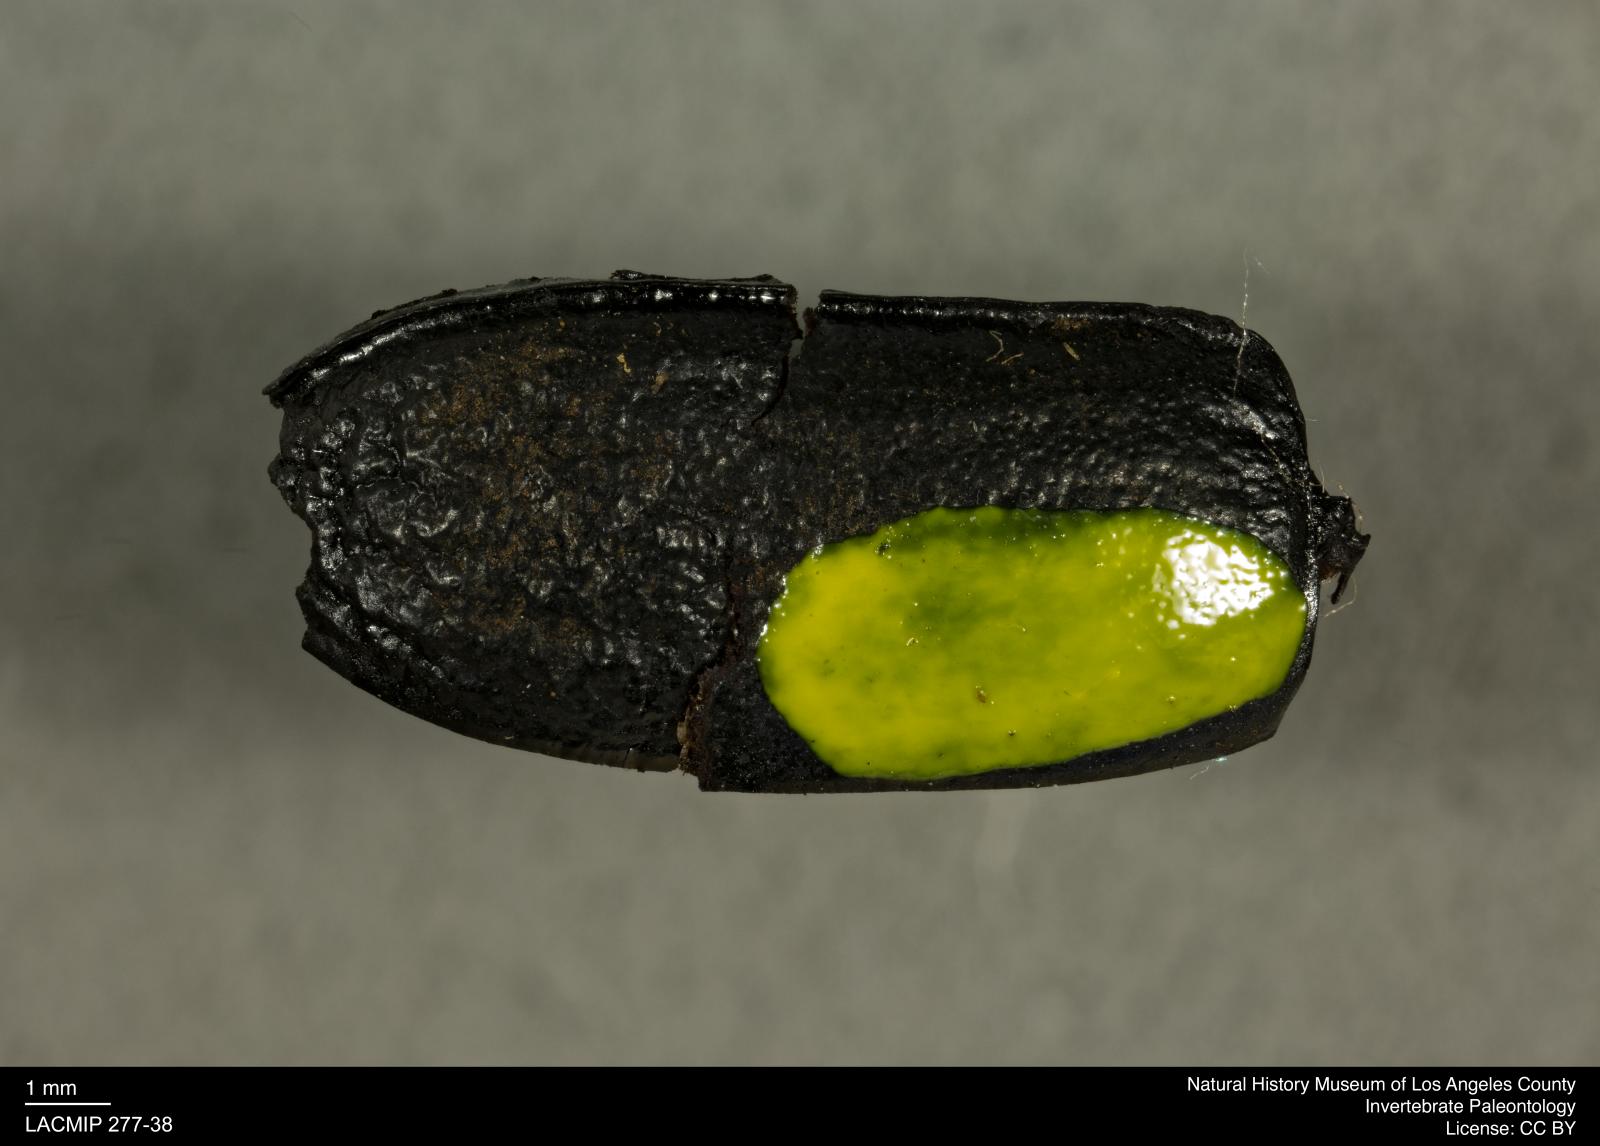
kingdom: Animalia
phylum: Arthropoda
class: Insecta
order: Coleoptera
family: Tenebrionidae
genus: Coniontis
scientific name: Coniontis abdominalis
